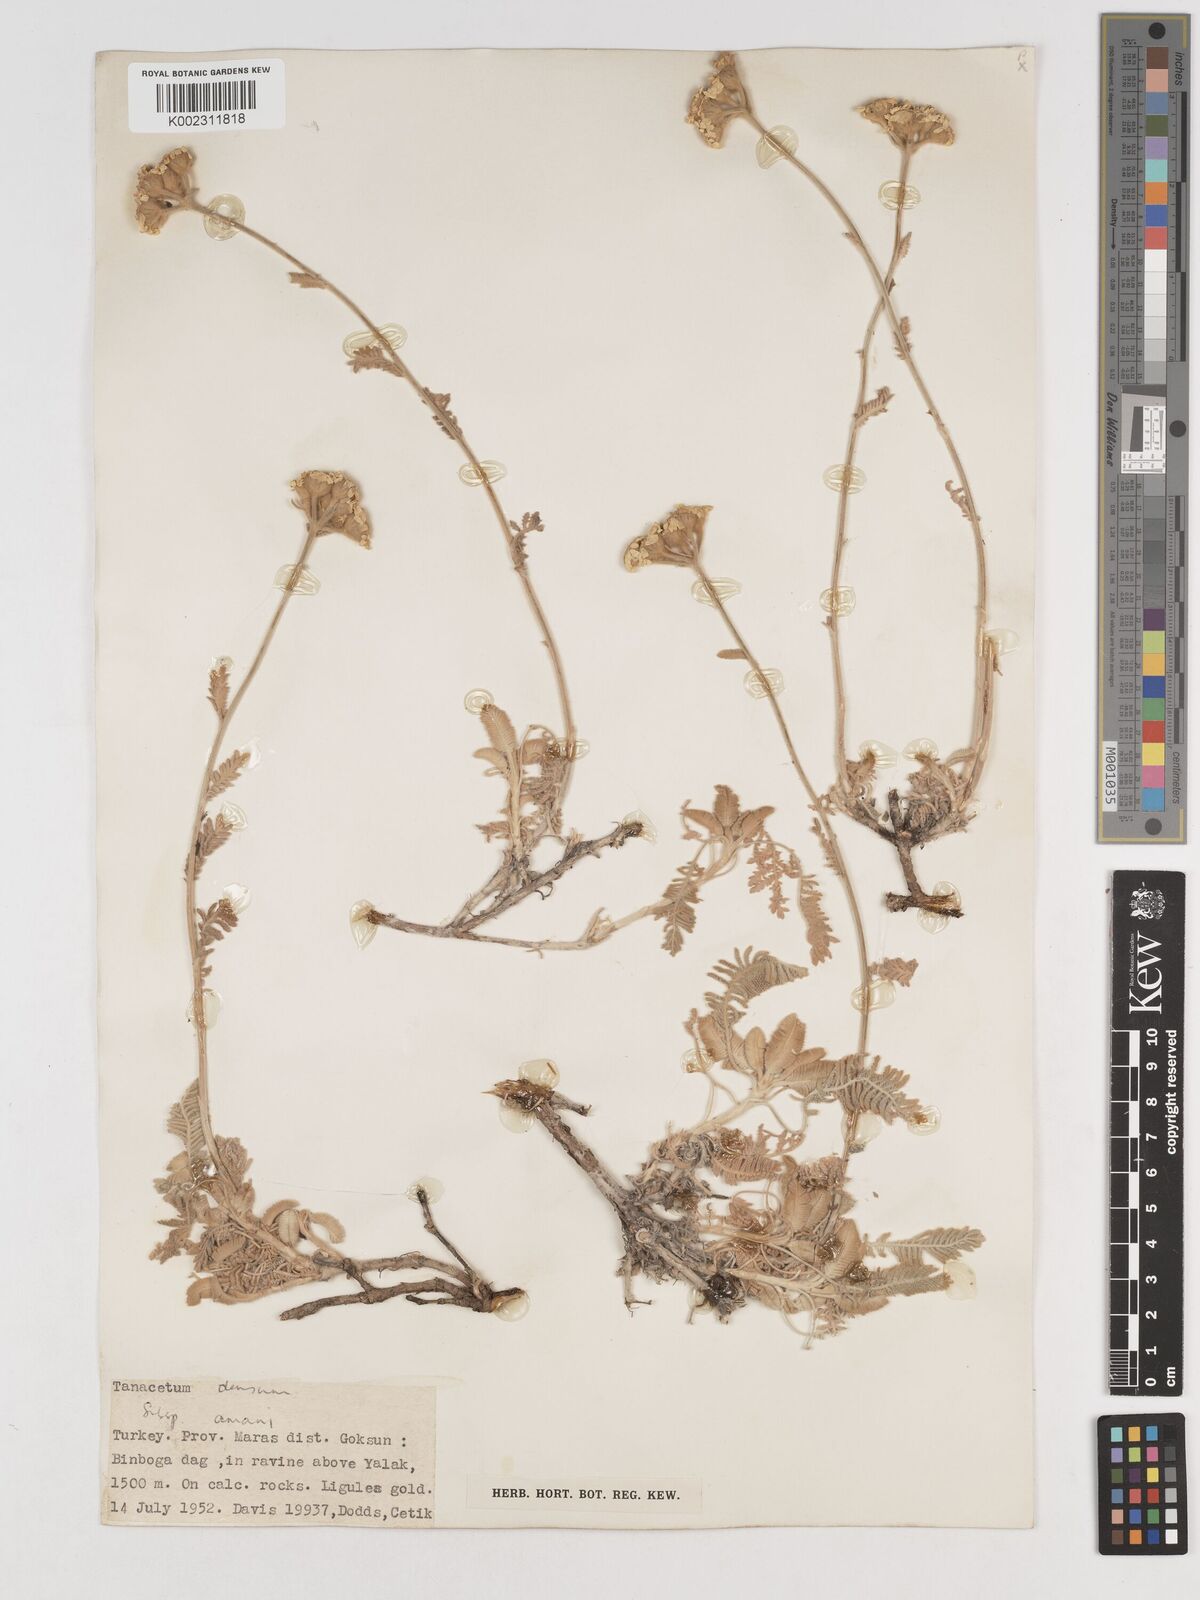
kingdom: Plantae
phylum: Tracheophyta
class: Magnoliopsida
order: Asterales
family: Asteraceae
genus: Tanacetum
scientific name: Tanacetum densum
